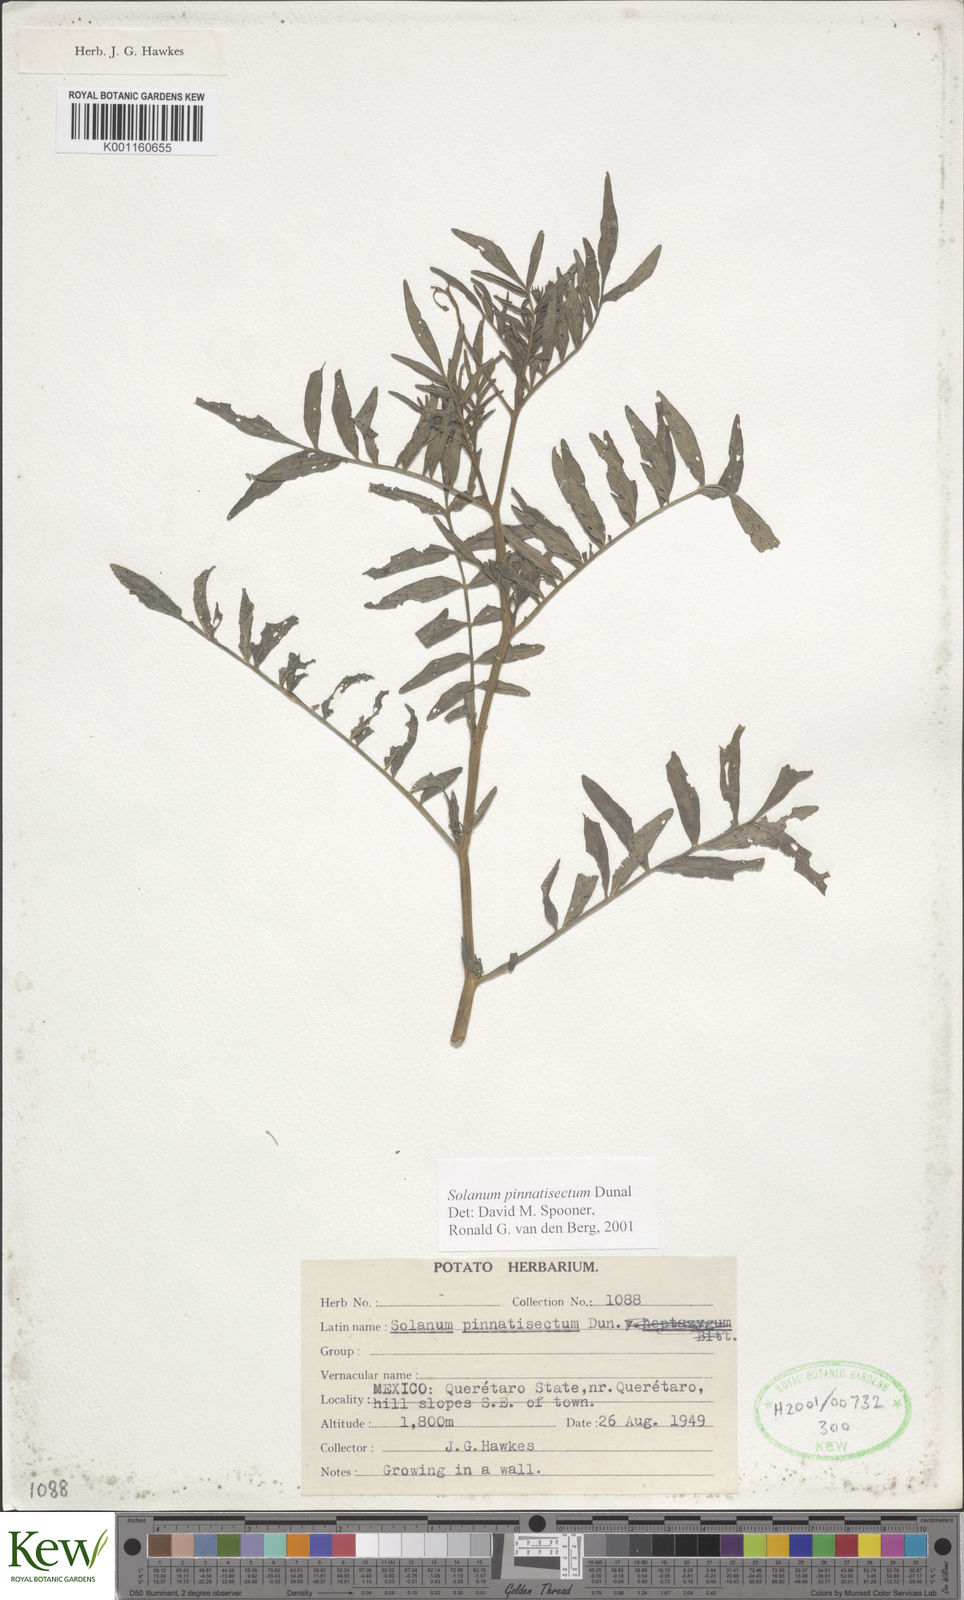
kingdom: Plantae
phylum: Tracheophyta
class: Magnoliopsida
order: Solanales
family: Solanaceae
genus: Solanum
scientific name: Solanum pinnatisectum
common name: Tansyleaf nightshade
